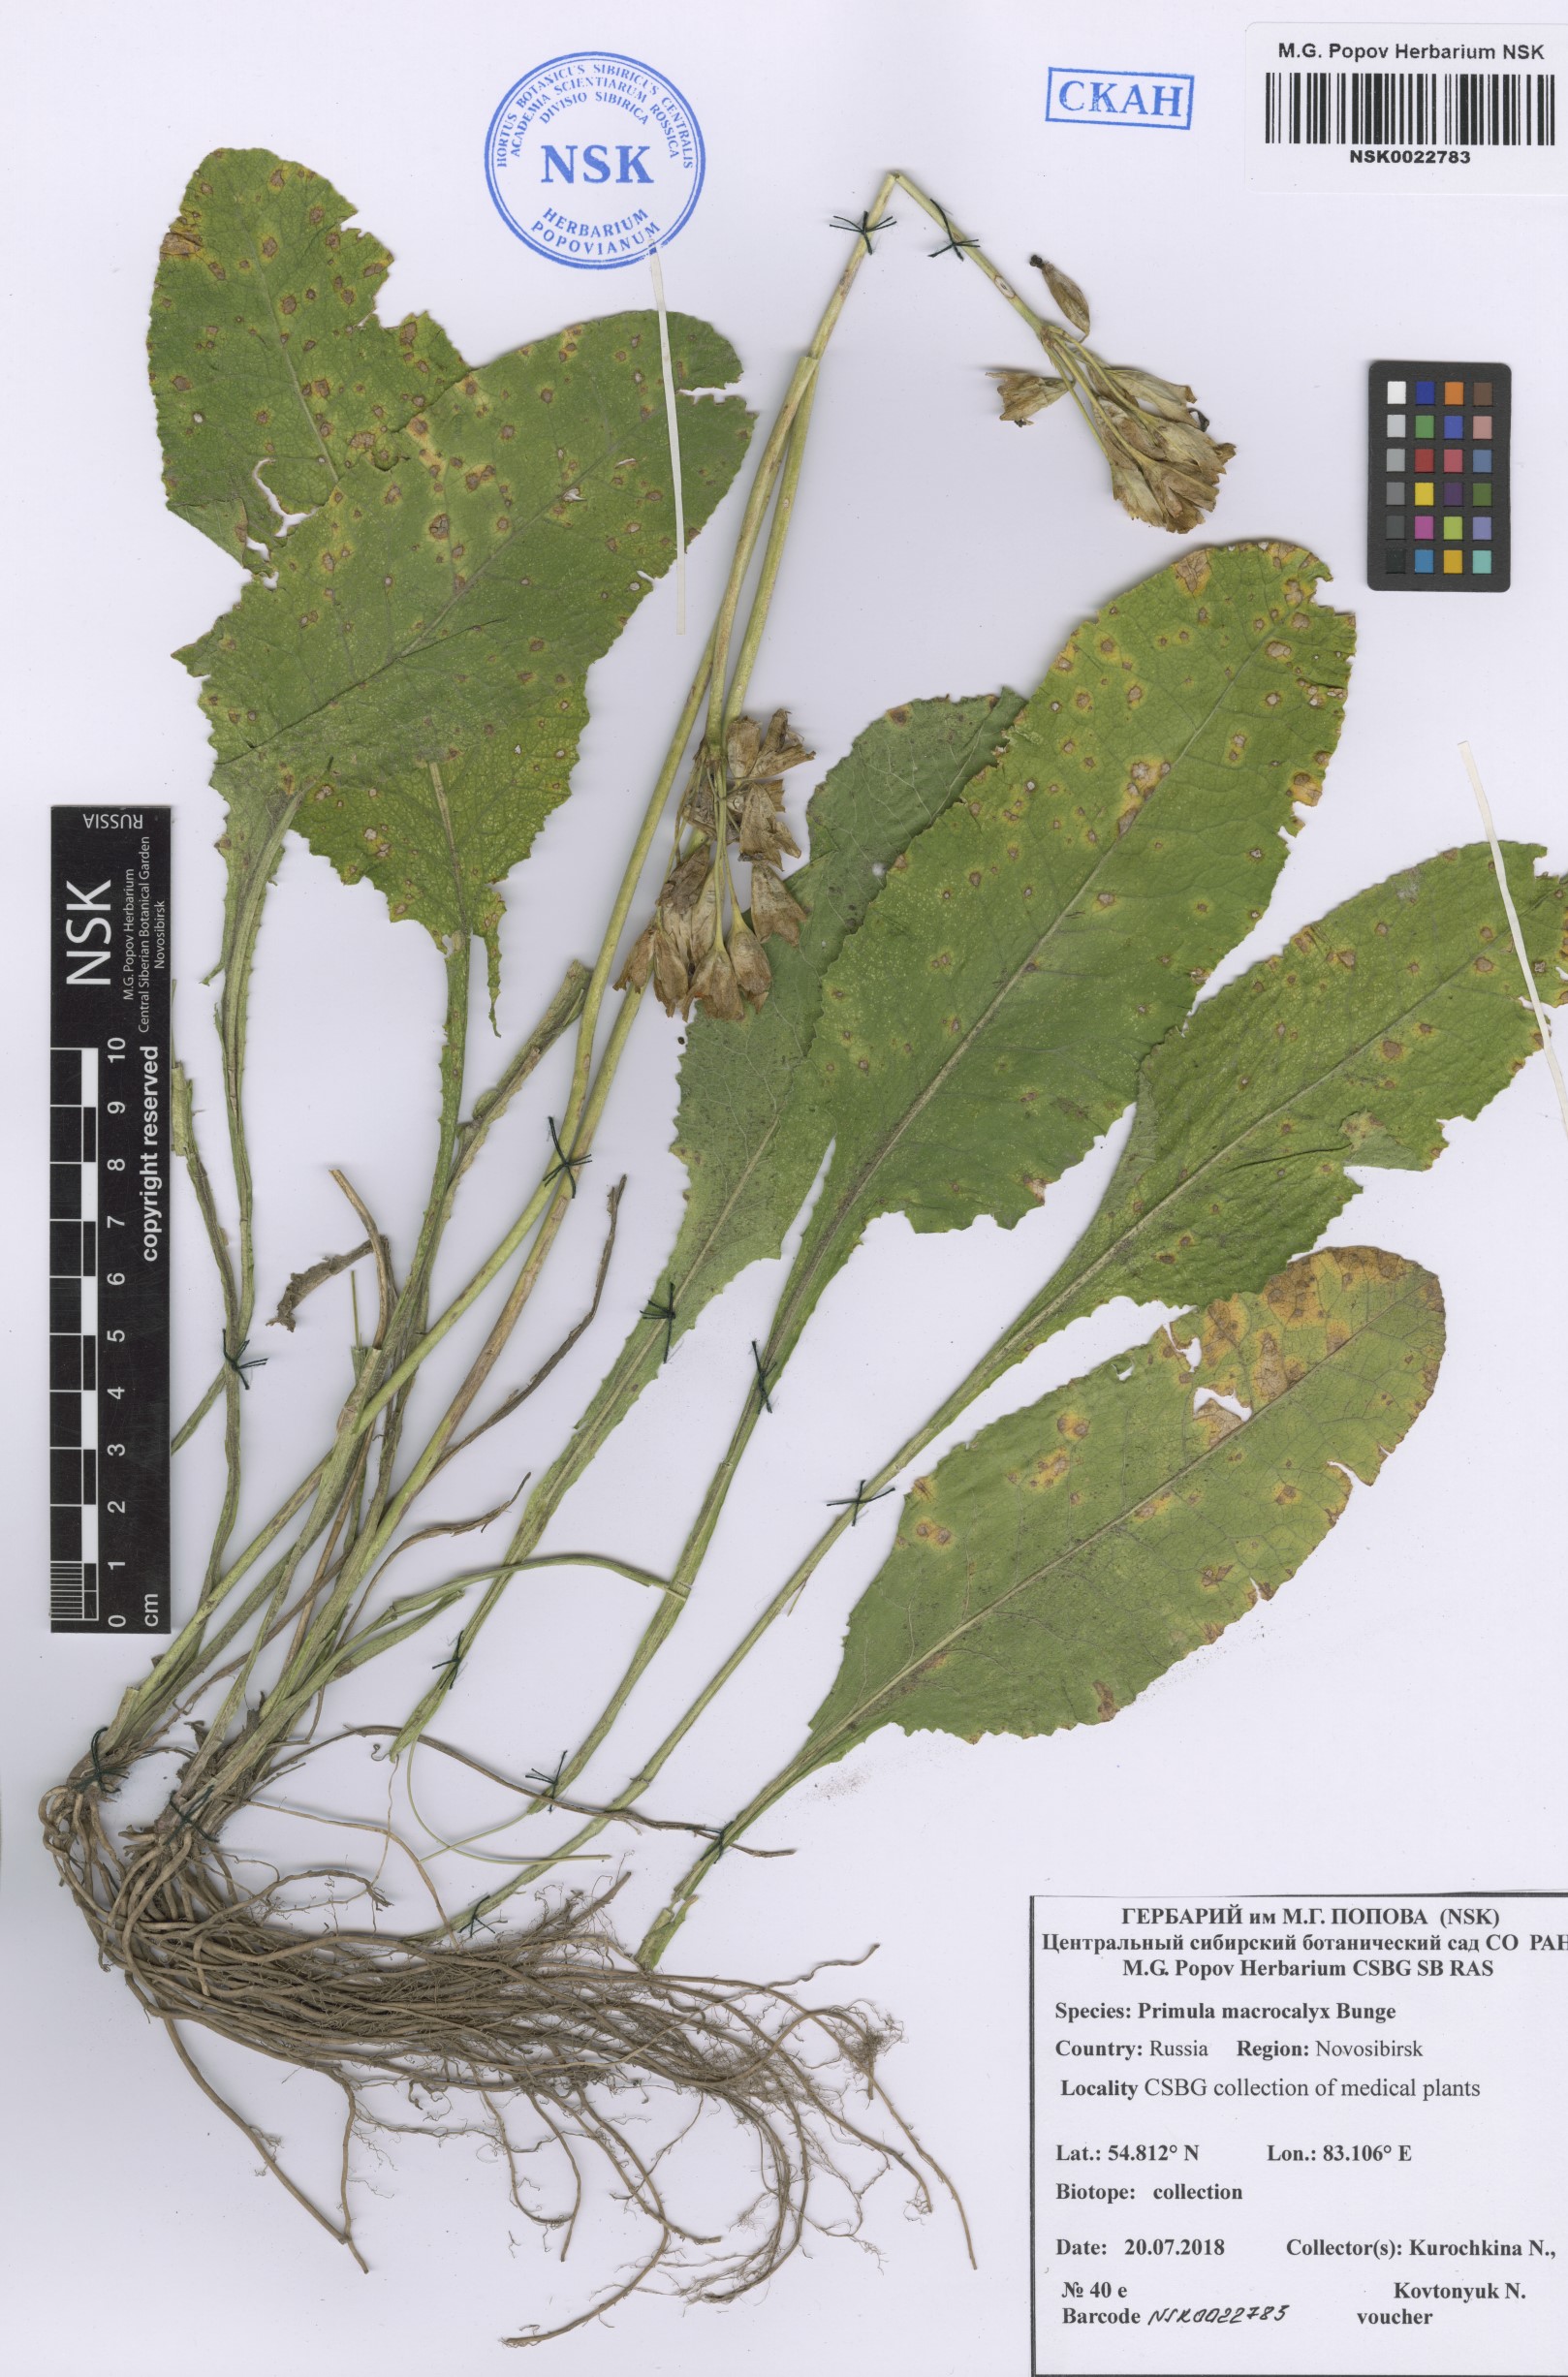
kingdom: Plantae
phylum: Tracheophyta
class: Magnoliopsida
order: Ericales
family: Primulaceae
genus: Primula
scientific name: Primula veris
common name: Cowslip
